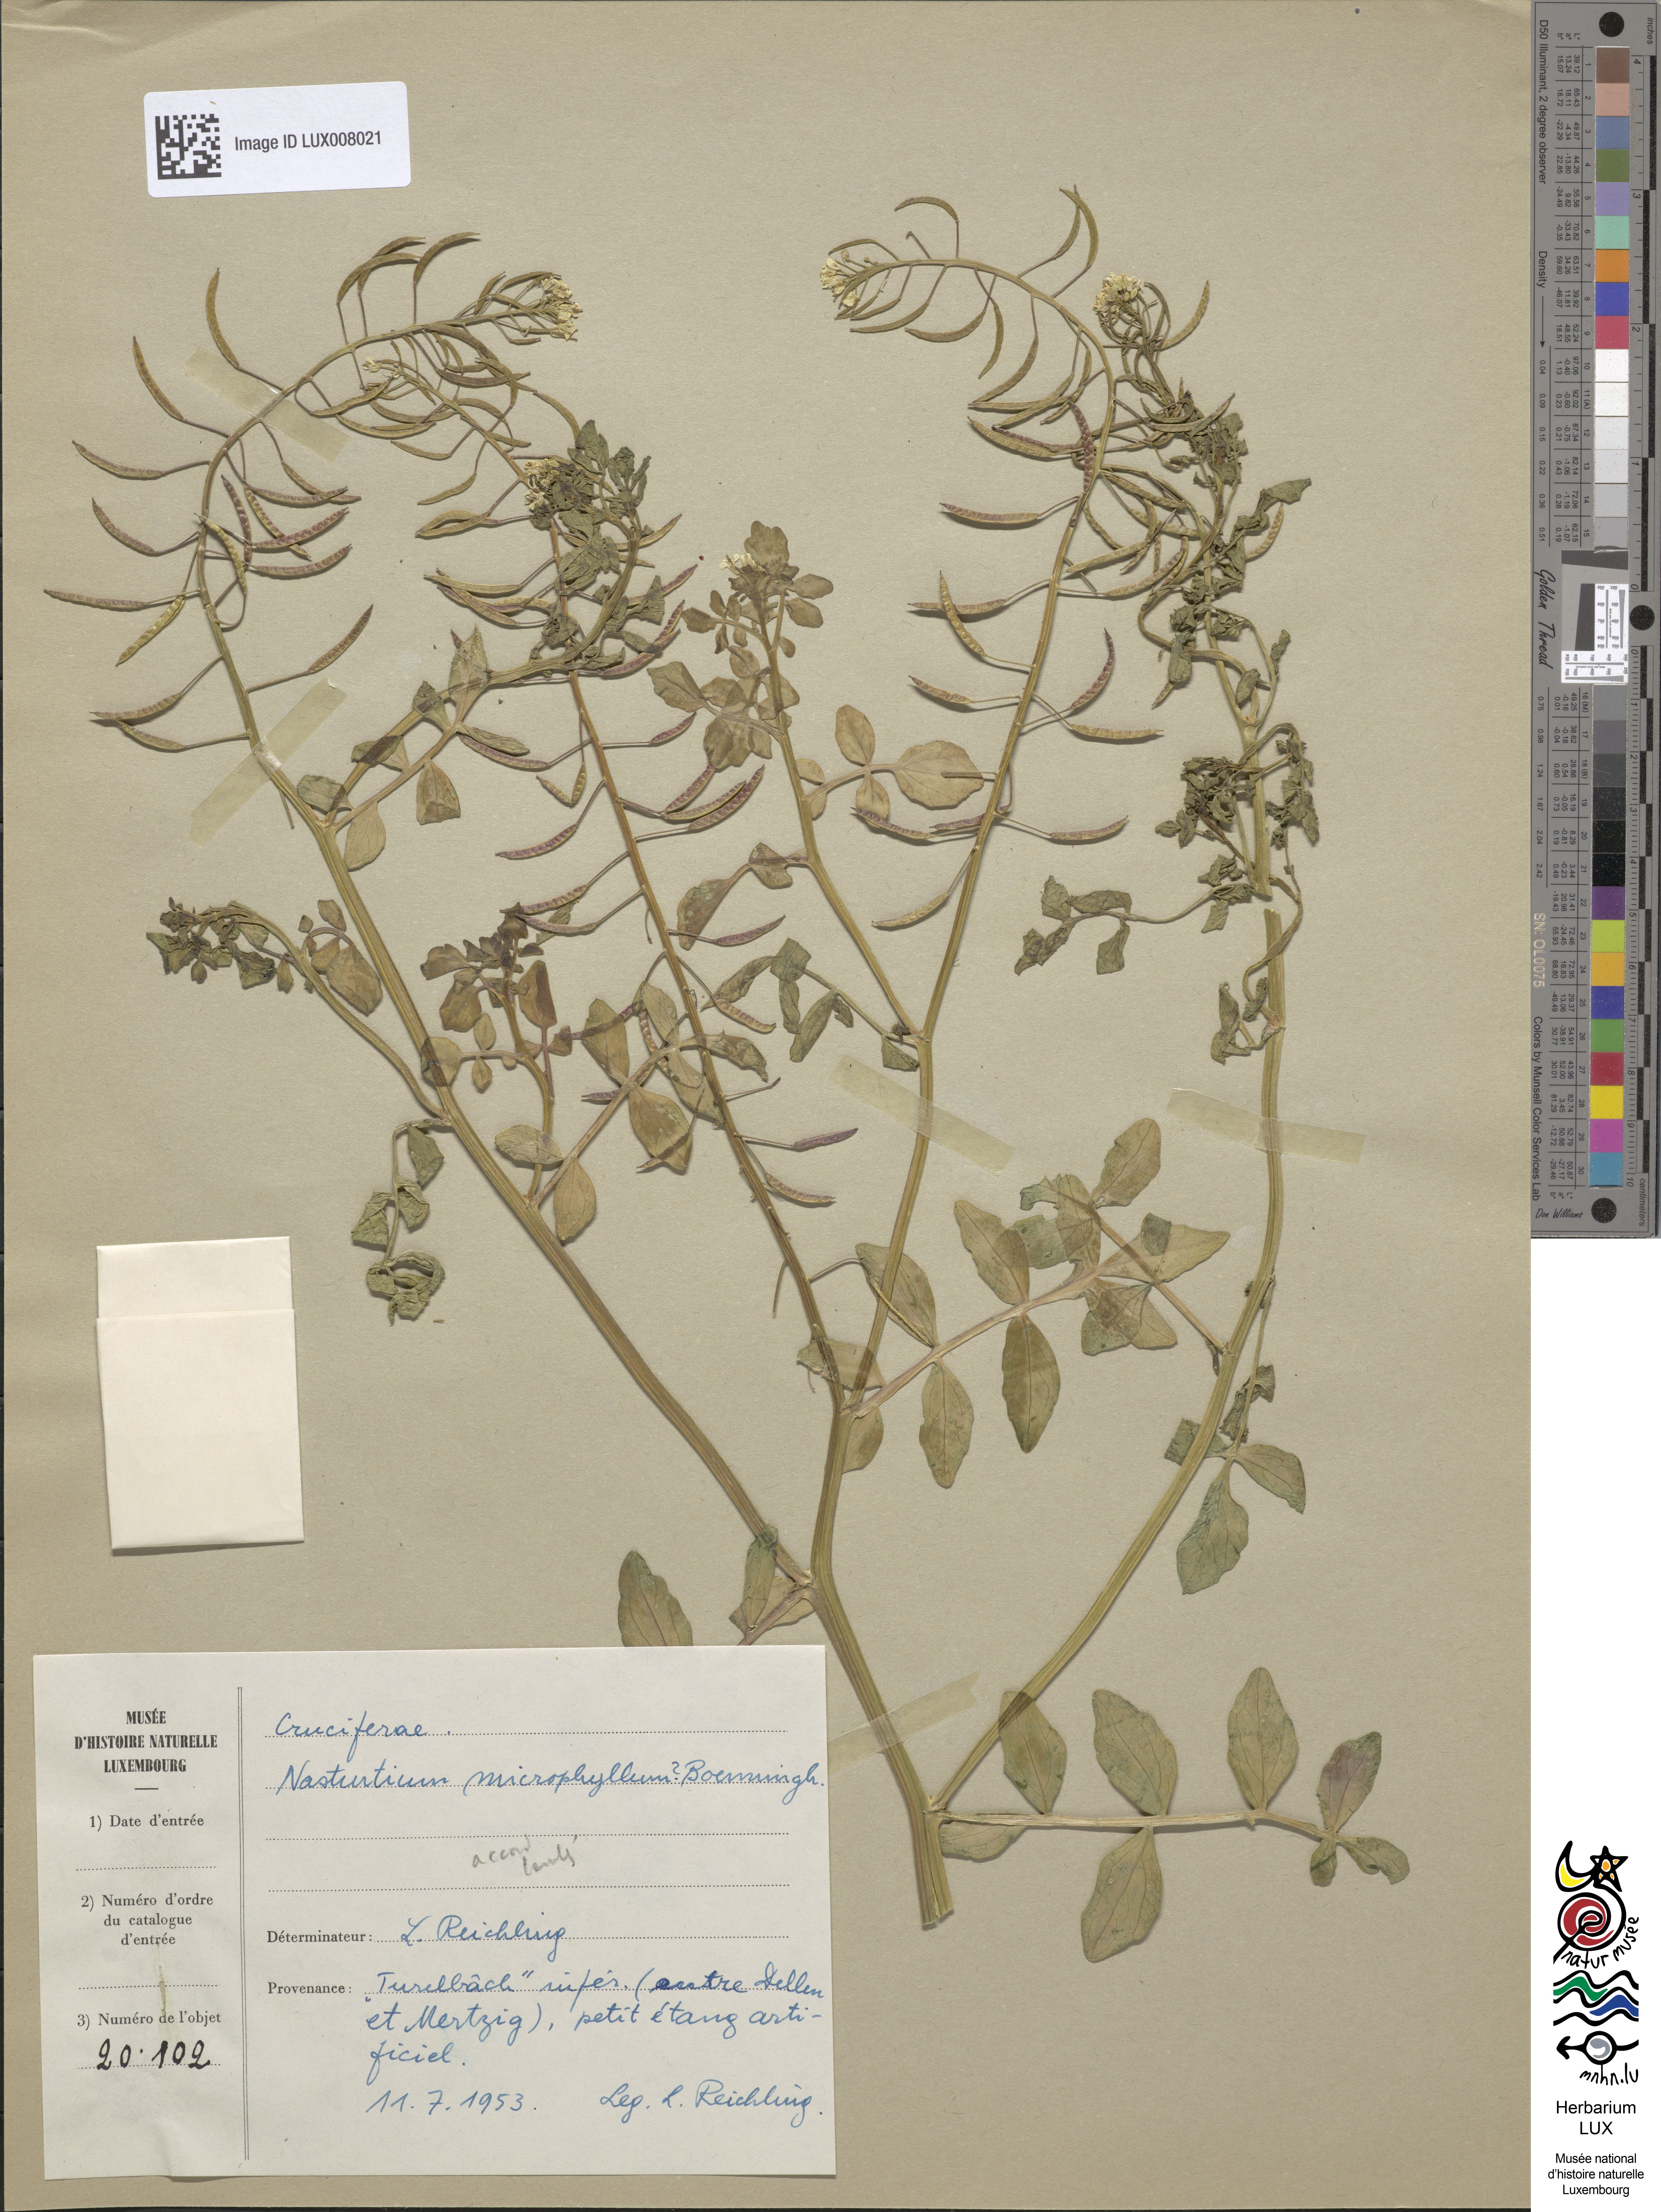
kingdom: Plantae
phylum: Tracheophyta
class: Magnoliopsida
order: Brassicales
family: Brassicaceae
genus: Nasturtium
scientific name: Nasturtium microphyllum
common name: Onerow yellowcress
